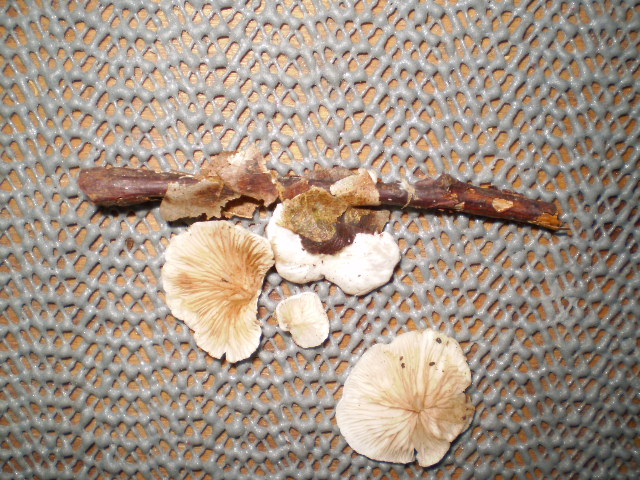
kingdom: Fungi
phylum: Basidiomycota
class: Agaricomycetes
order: Agaricales
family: Crepidotaceae
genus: Crepidotus
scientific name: Crepidotus variabilis
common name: forskelligformet muslingesvamp
